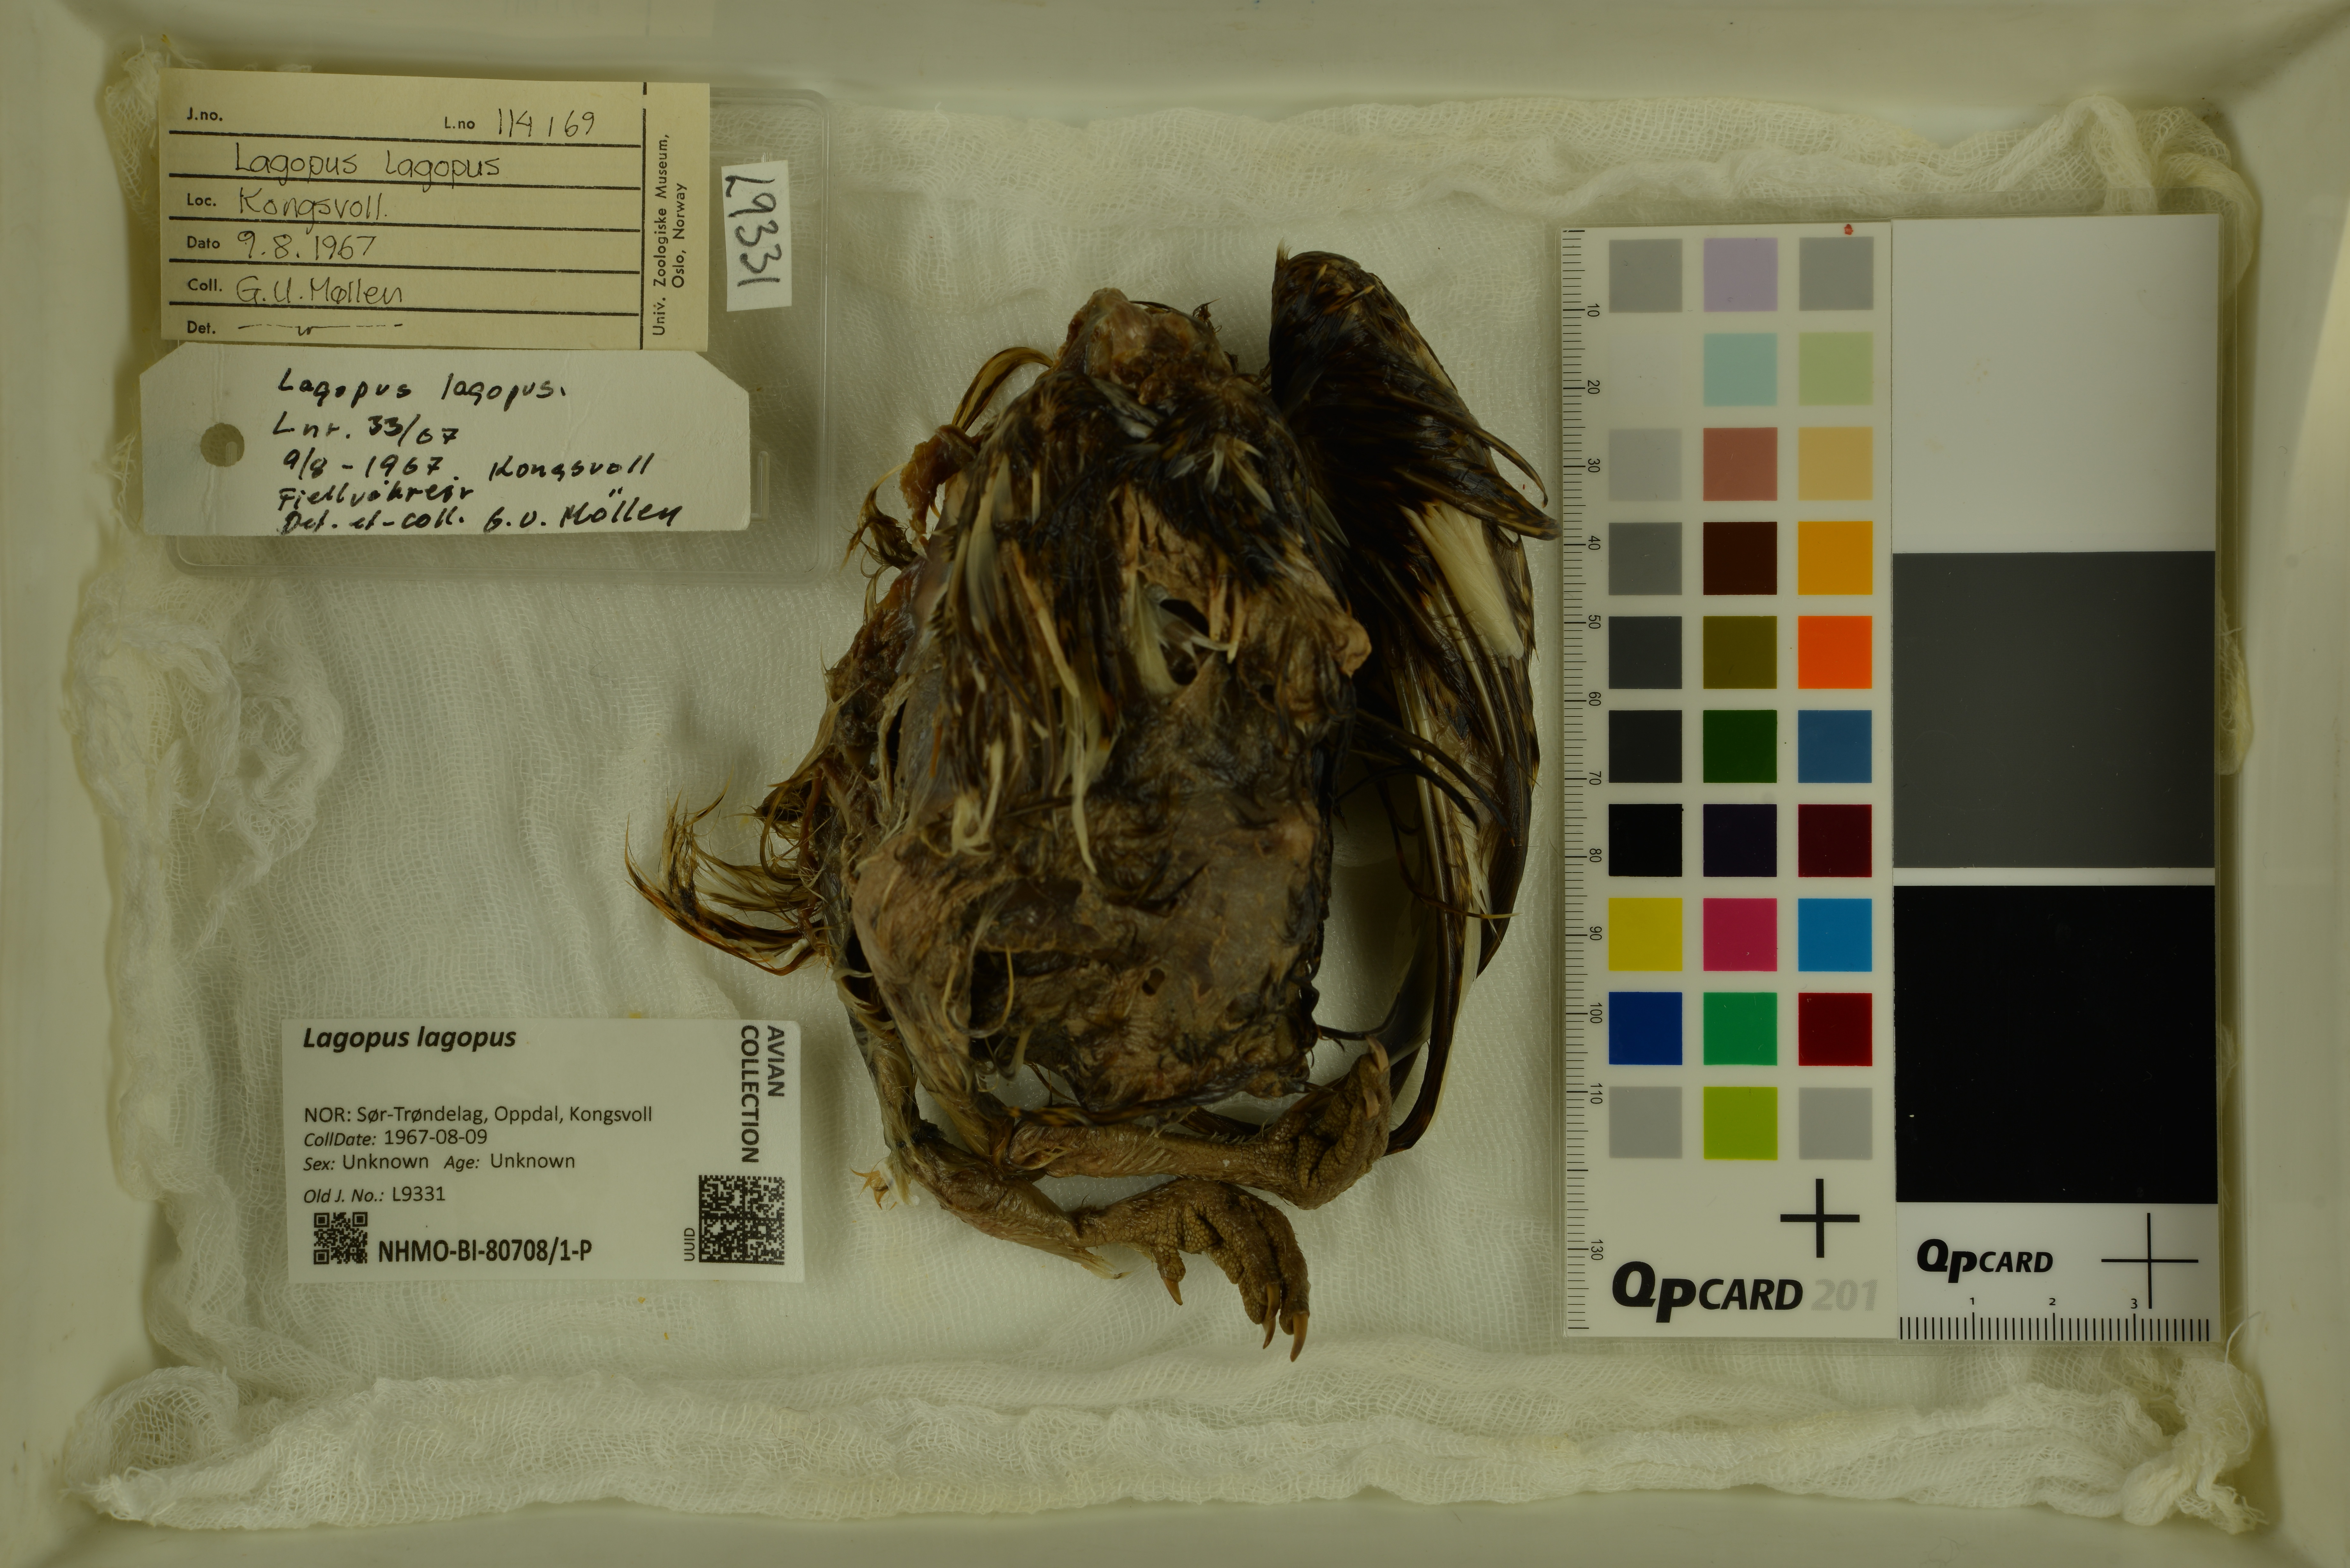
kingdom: Animalia
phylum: Chordata
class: Aves
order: Galliformes
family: Phasianidae
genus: Lagopus
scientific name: Lagopus lagopus
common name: Willow ptarmigan
